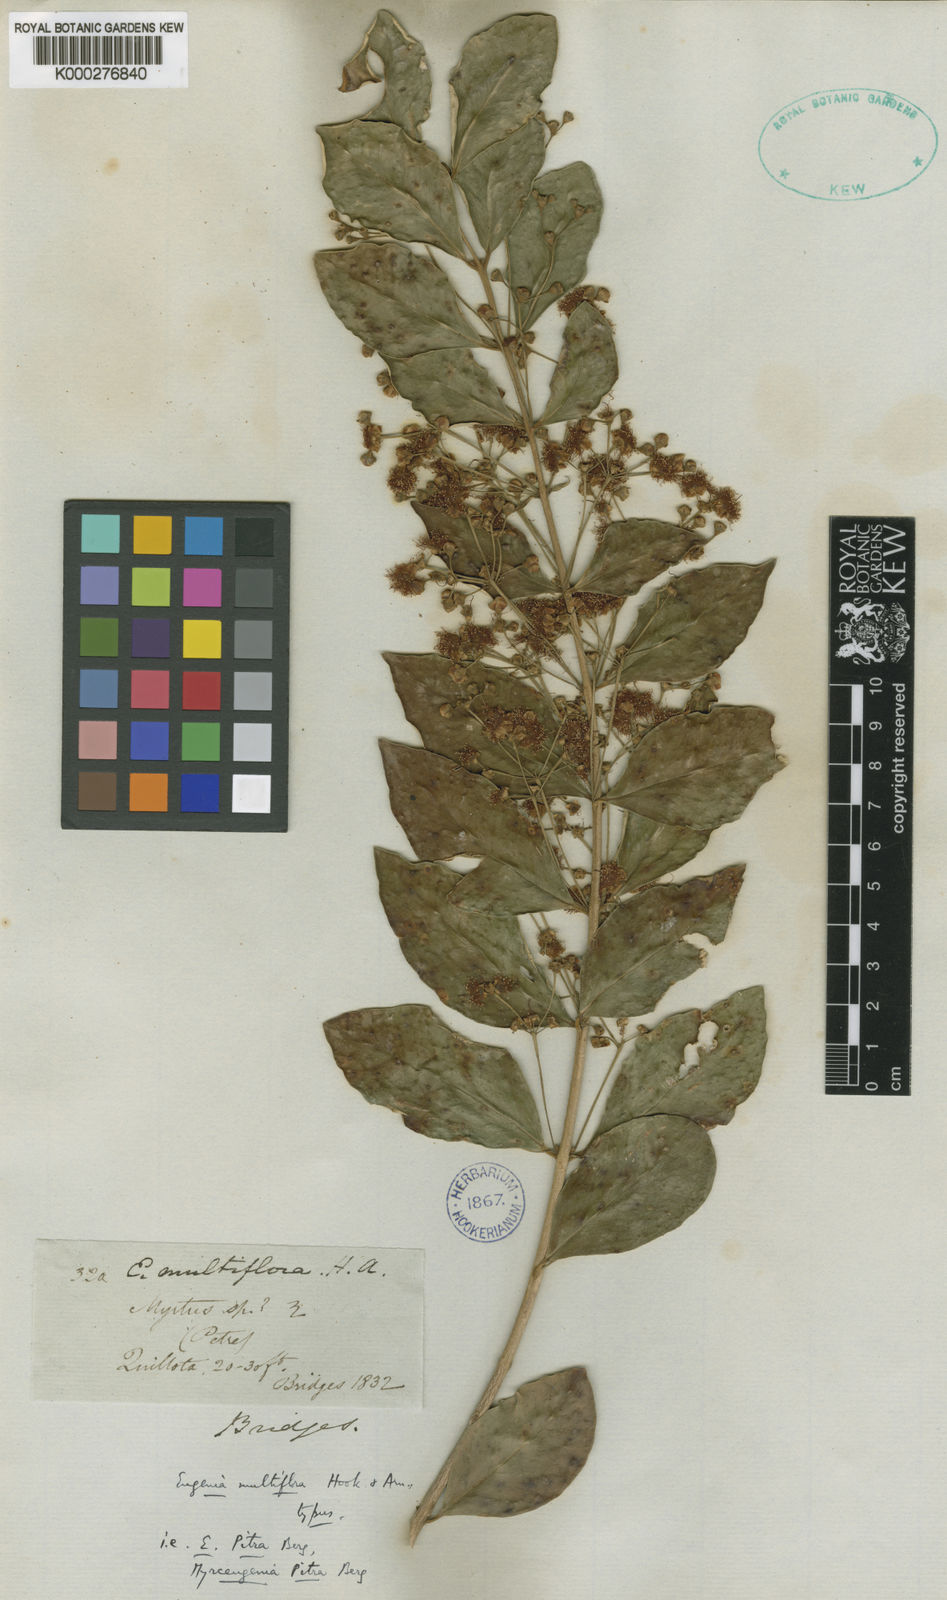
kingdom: Plantae
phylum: Tracheophyta
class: Magnoliopsida
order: Myrtales
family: Myrtaceae
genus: Myrceugenia
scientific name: Myrceugenia exsucca
